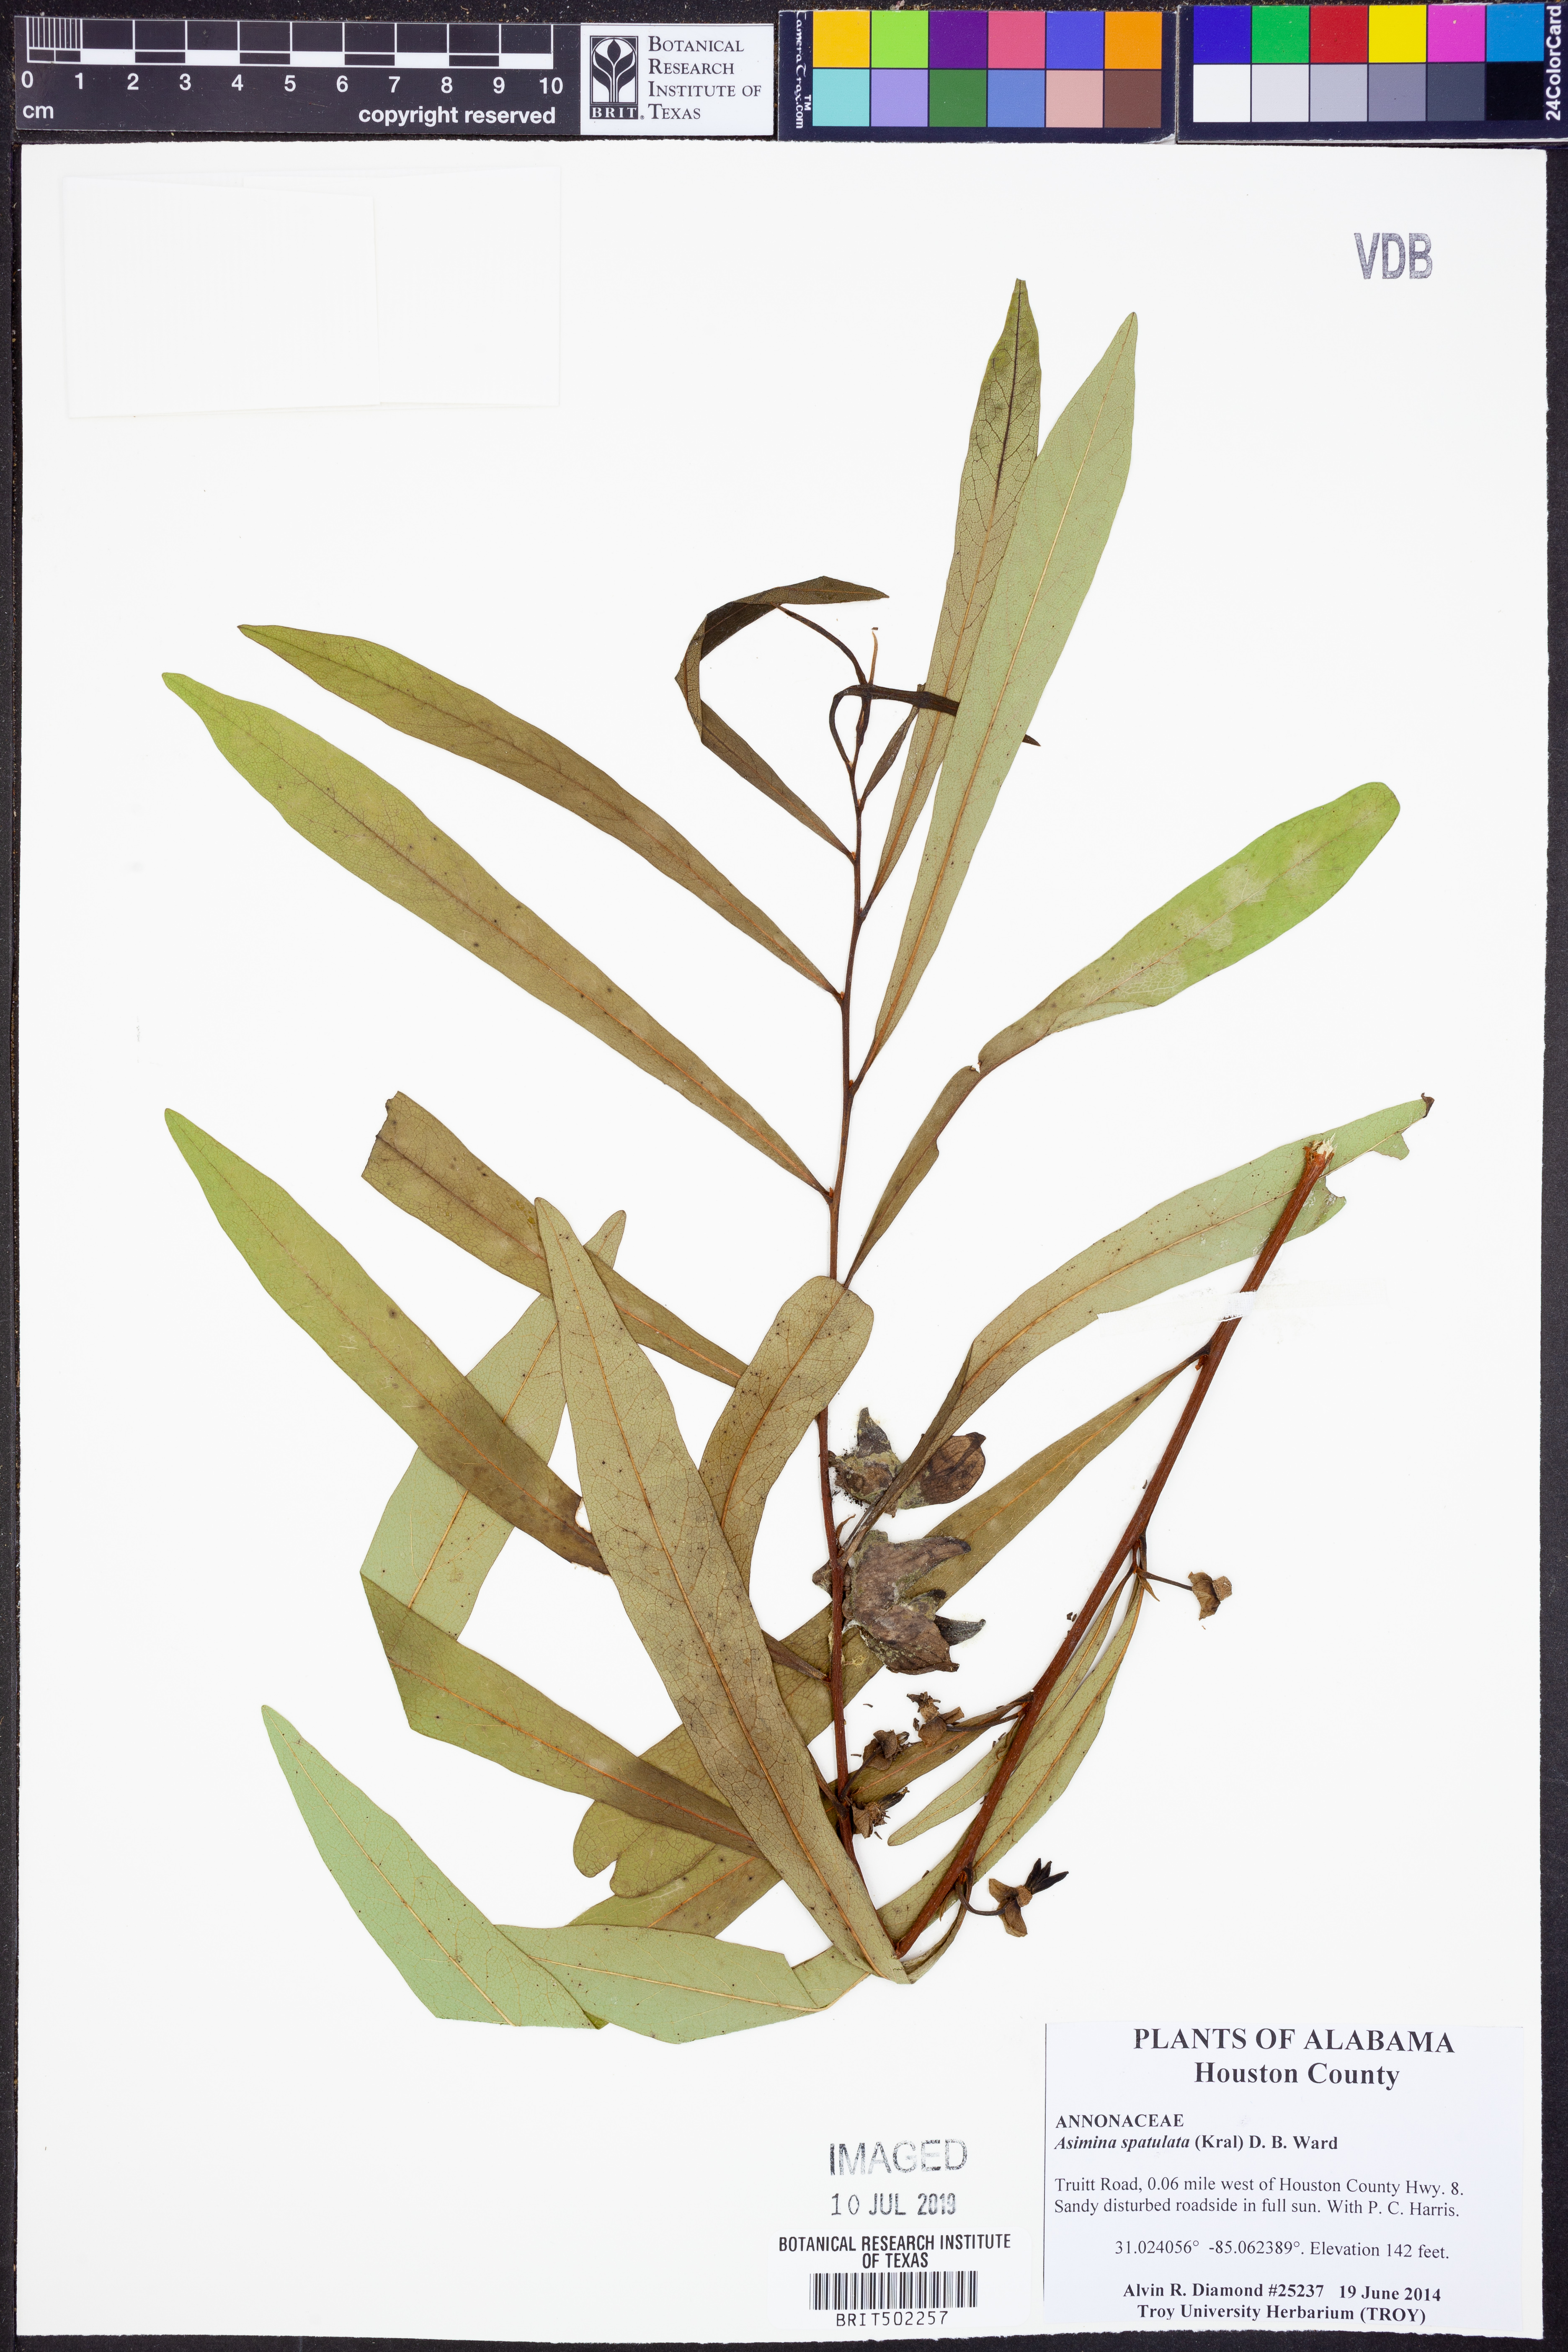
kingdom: Plantae
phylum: Tracheophyta
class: Magnoliopsida
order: Magnoliales
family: Annonaceae
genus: Asimina
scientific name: Asimina spatulata
